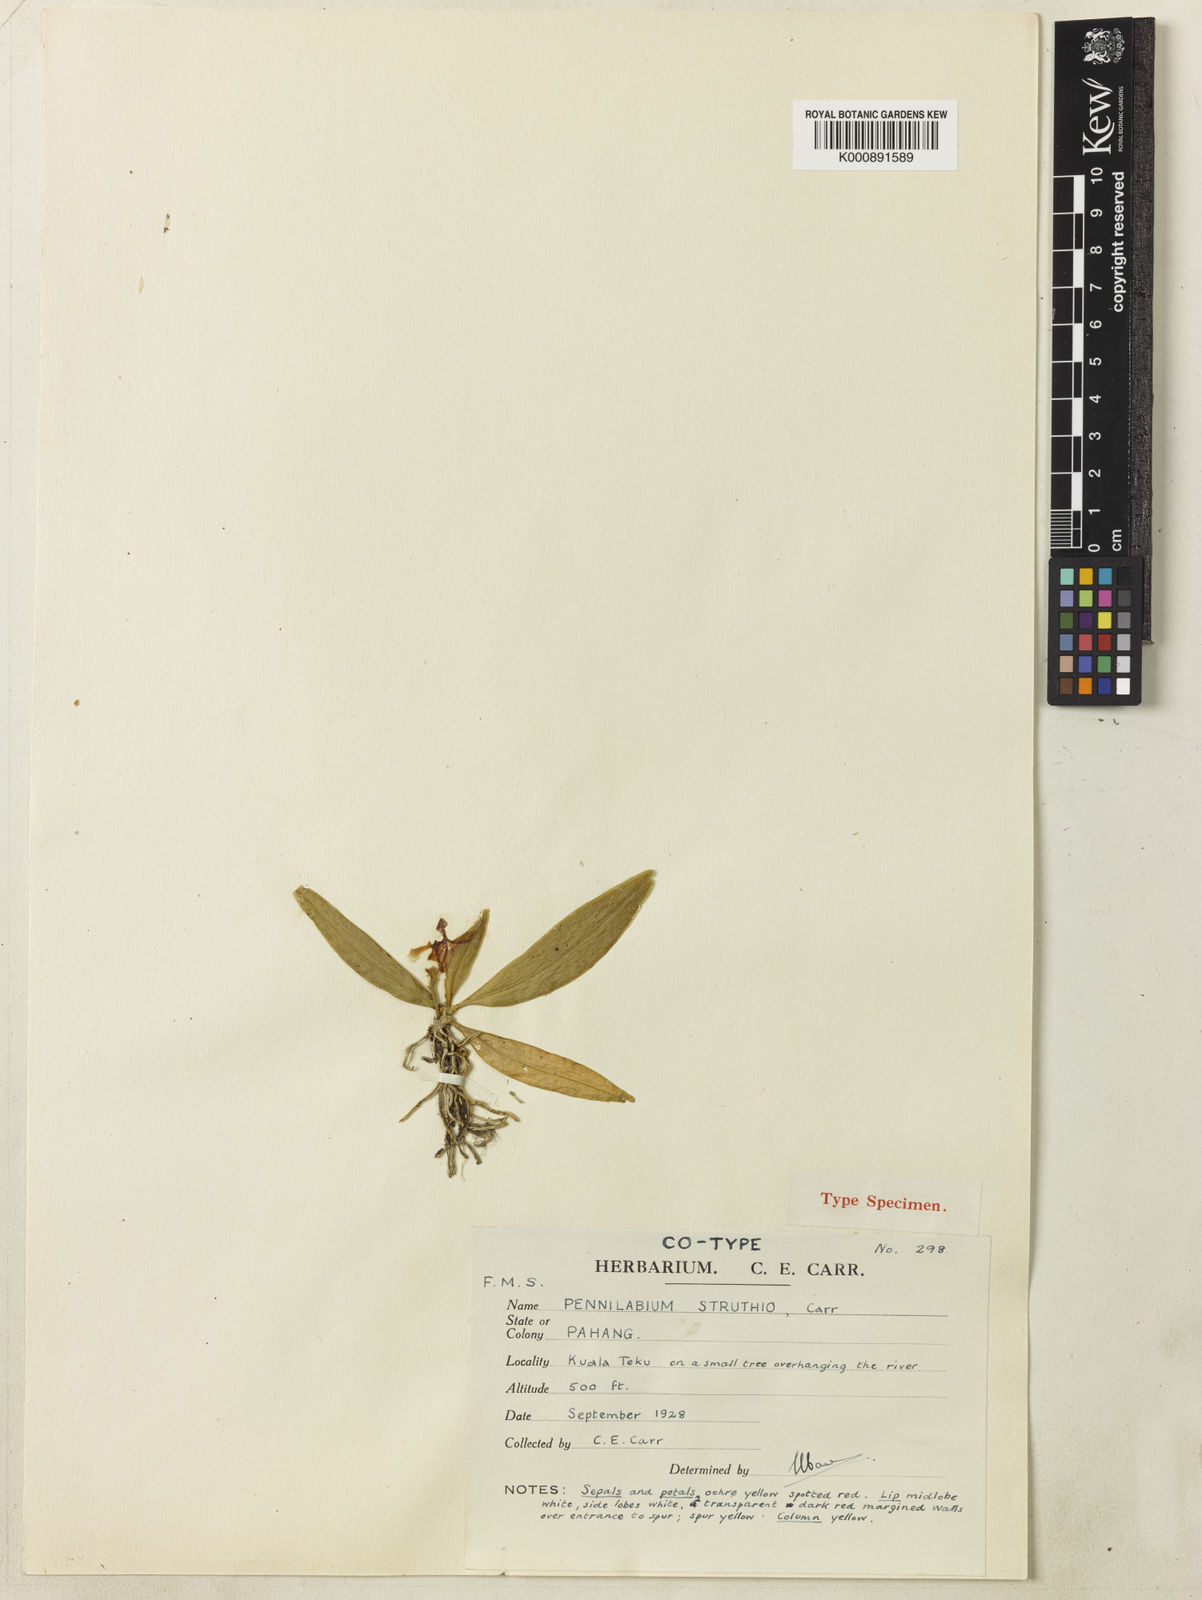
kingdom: Plantae
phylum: Tracheophyta
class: Liliopsida
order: Asparagales
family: Orchidaceae
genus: Pennilabium
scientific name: Pennilabium struthio
